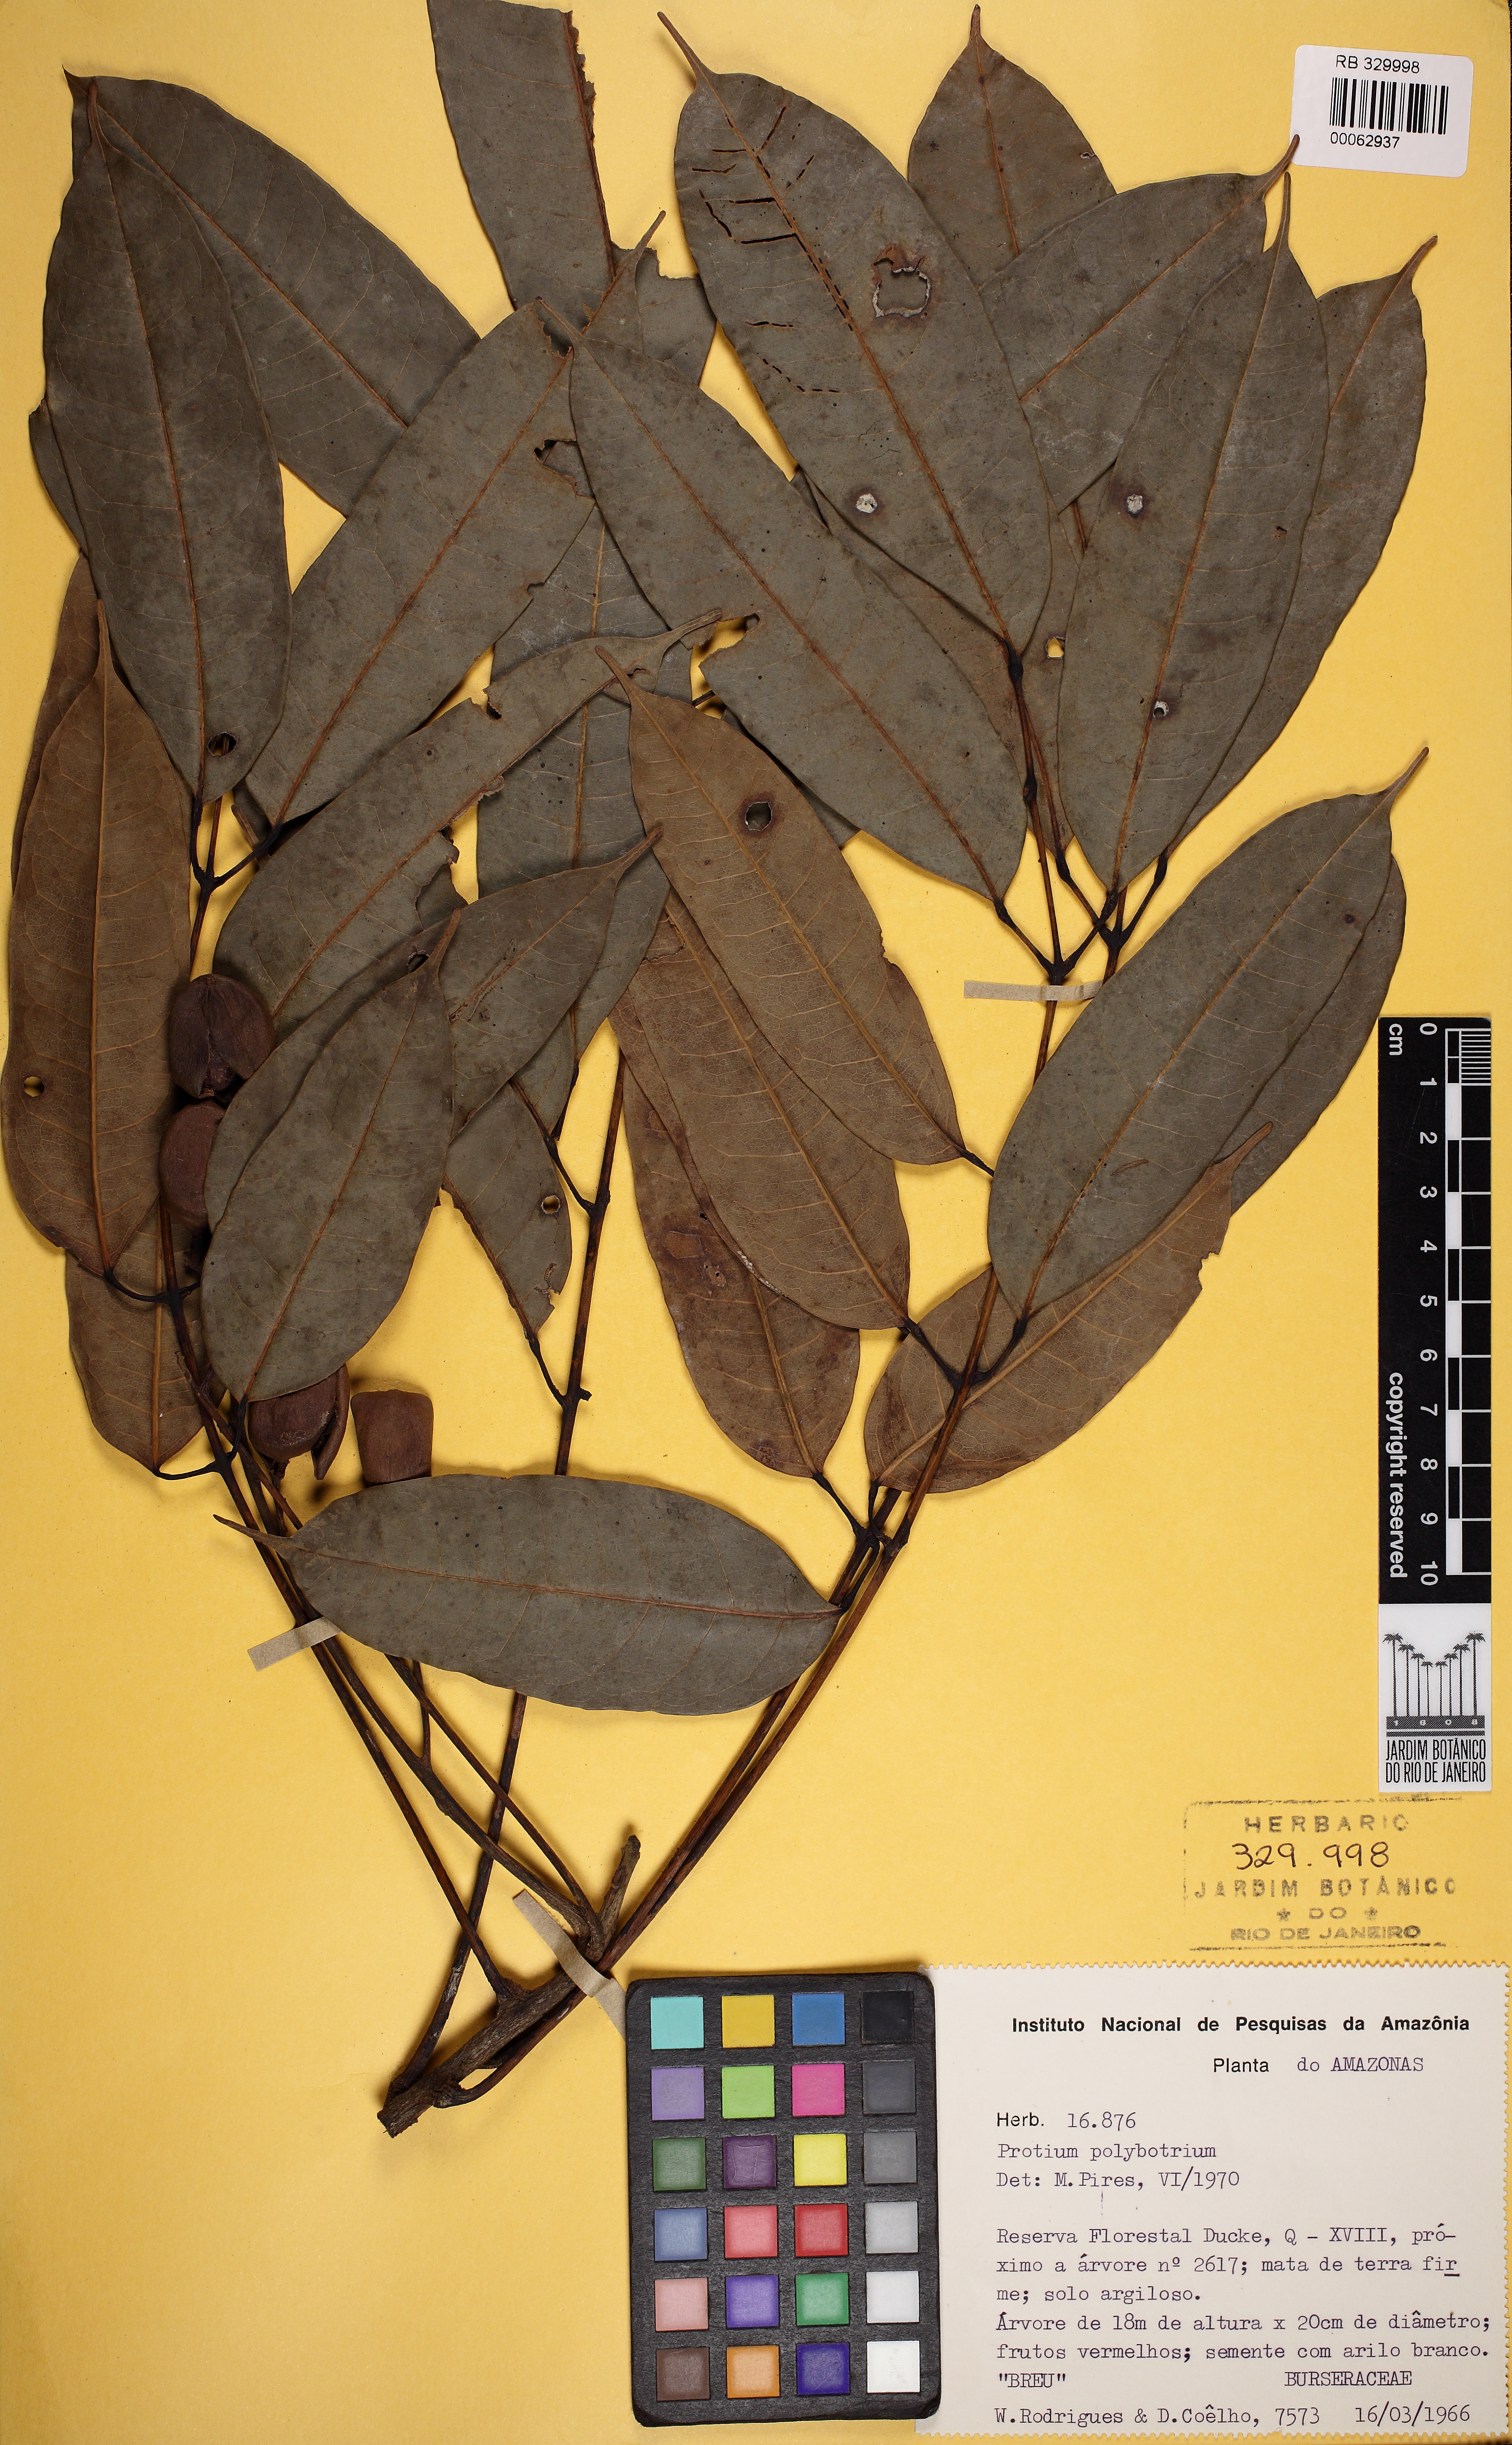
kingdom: Plantae
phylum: Tracheophyta
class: Magnoliopsida
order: Sapindales
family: Burseraceae
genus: Protium
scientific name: Protium polybotryum
